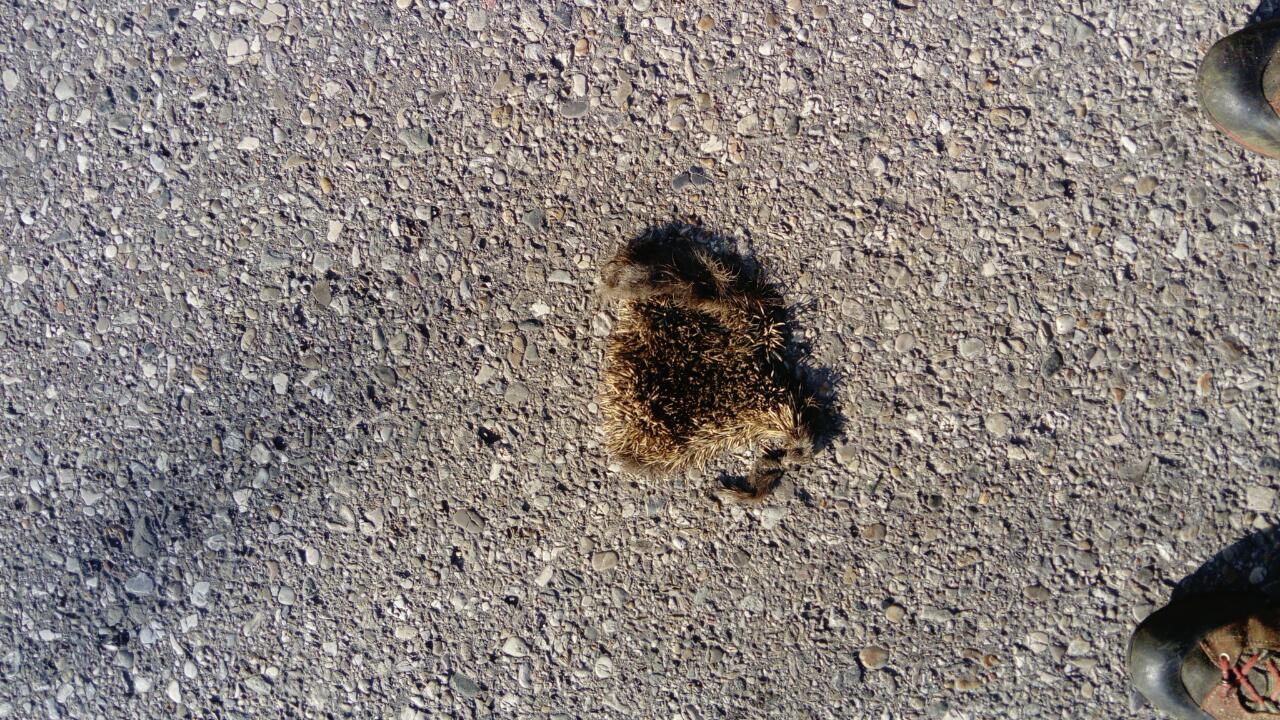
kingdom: Animalia
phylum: Chordata
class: Mammalia
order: Erinaceomorpha
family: Erinaceidae
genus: Erinaceus
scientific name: Erinaceus
